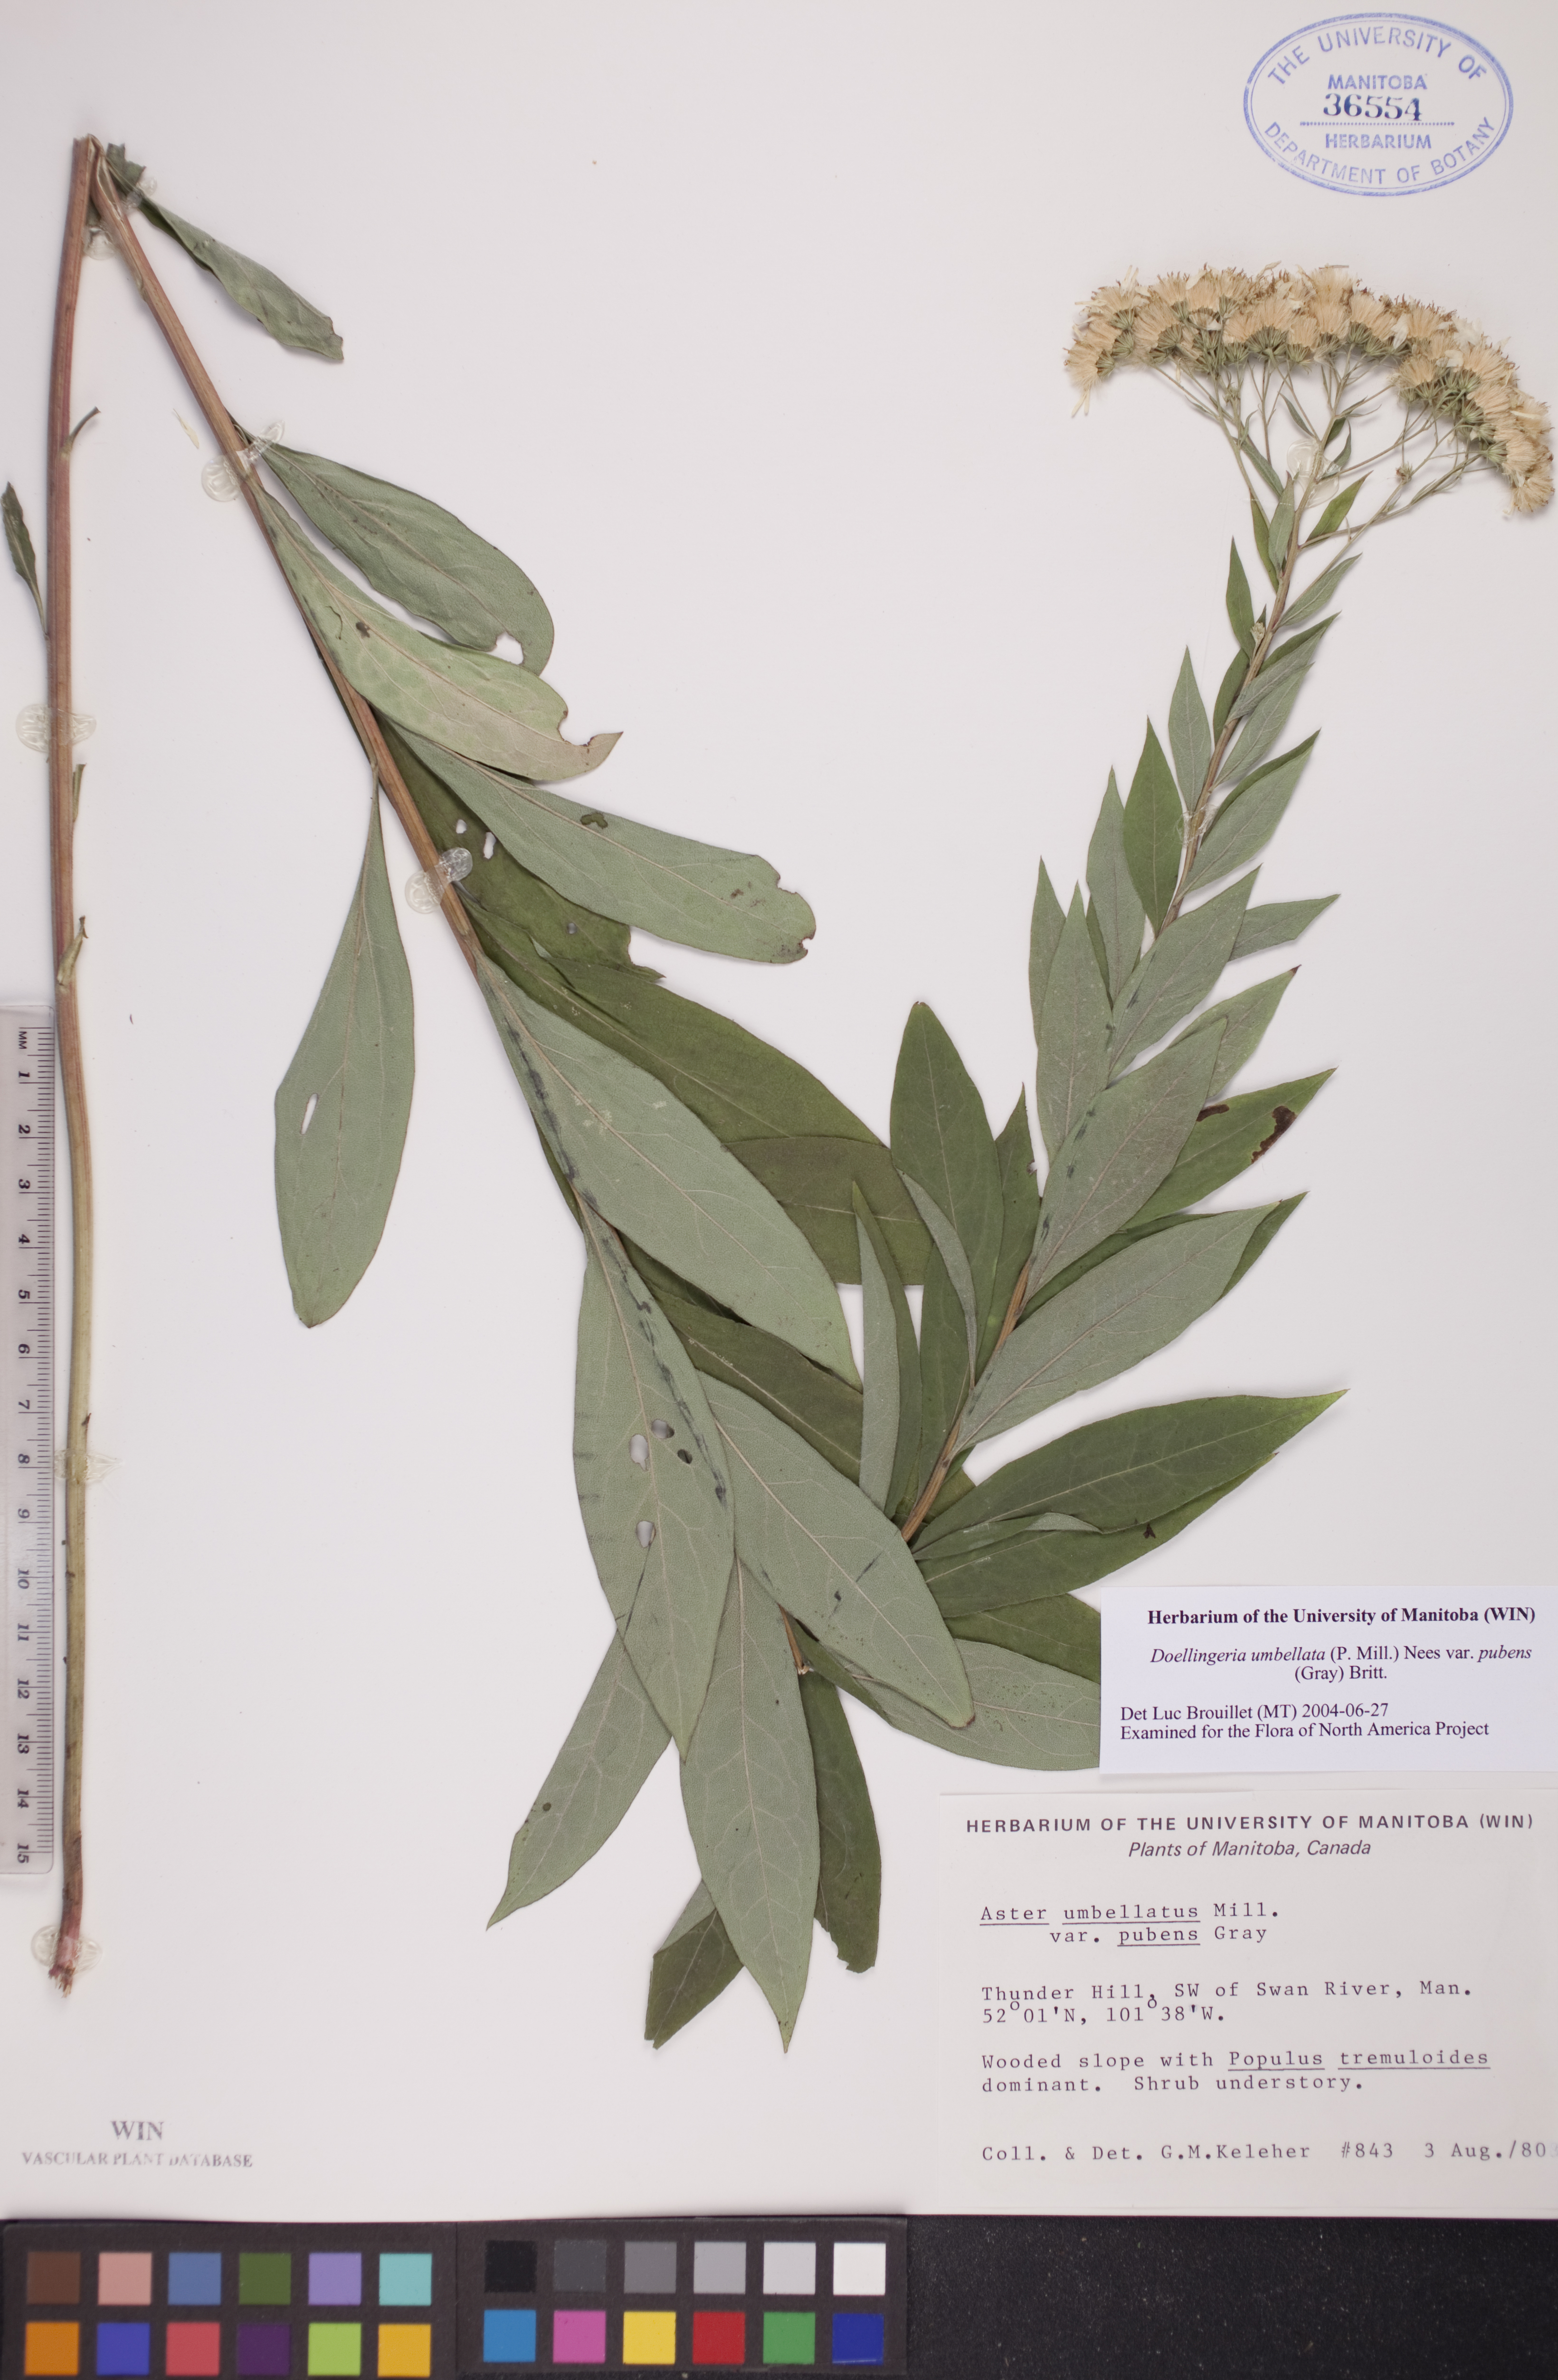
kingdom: Plantae
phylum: Tracheophyta
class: Magnoliopsida
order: Asterales
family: Asteraceae
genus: Doellingeria
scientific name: Doellingeria umbellata
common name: Flat-top white aster
